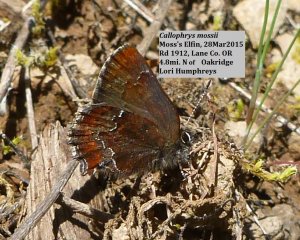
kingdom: Animalia
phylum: Arthropoda
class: Insecta
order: Lepidoptera
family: Lycaenidae
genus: Callophrys
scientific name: Callophrys mossii
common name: Moss' Elfin
